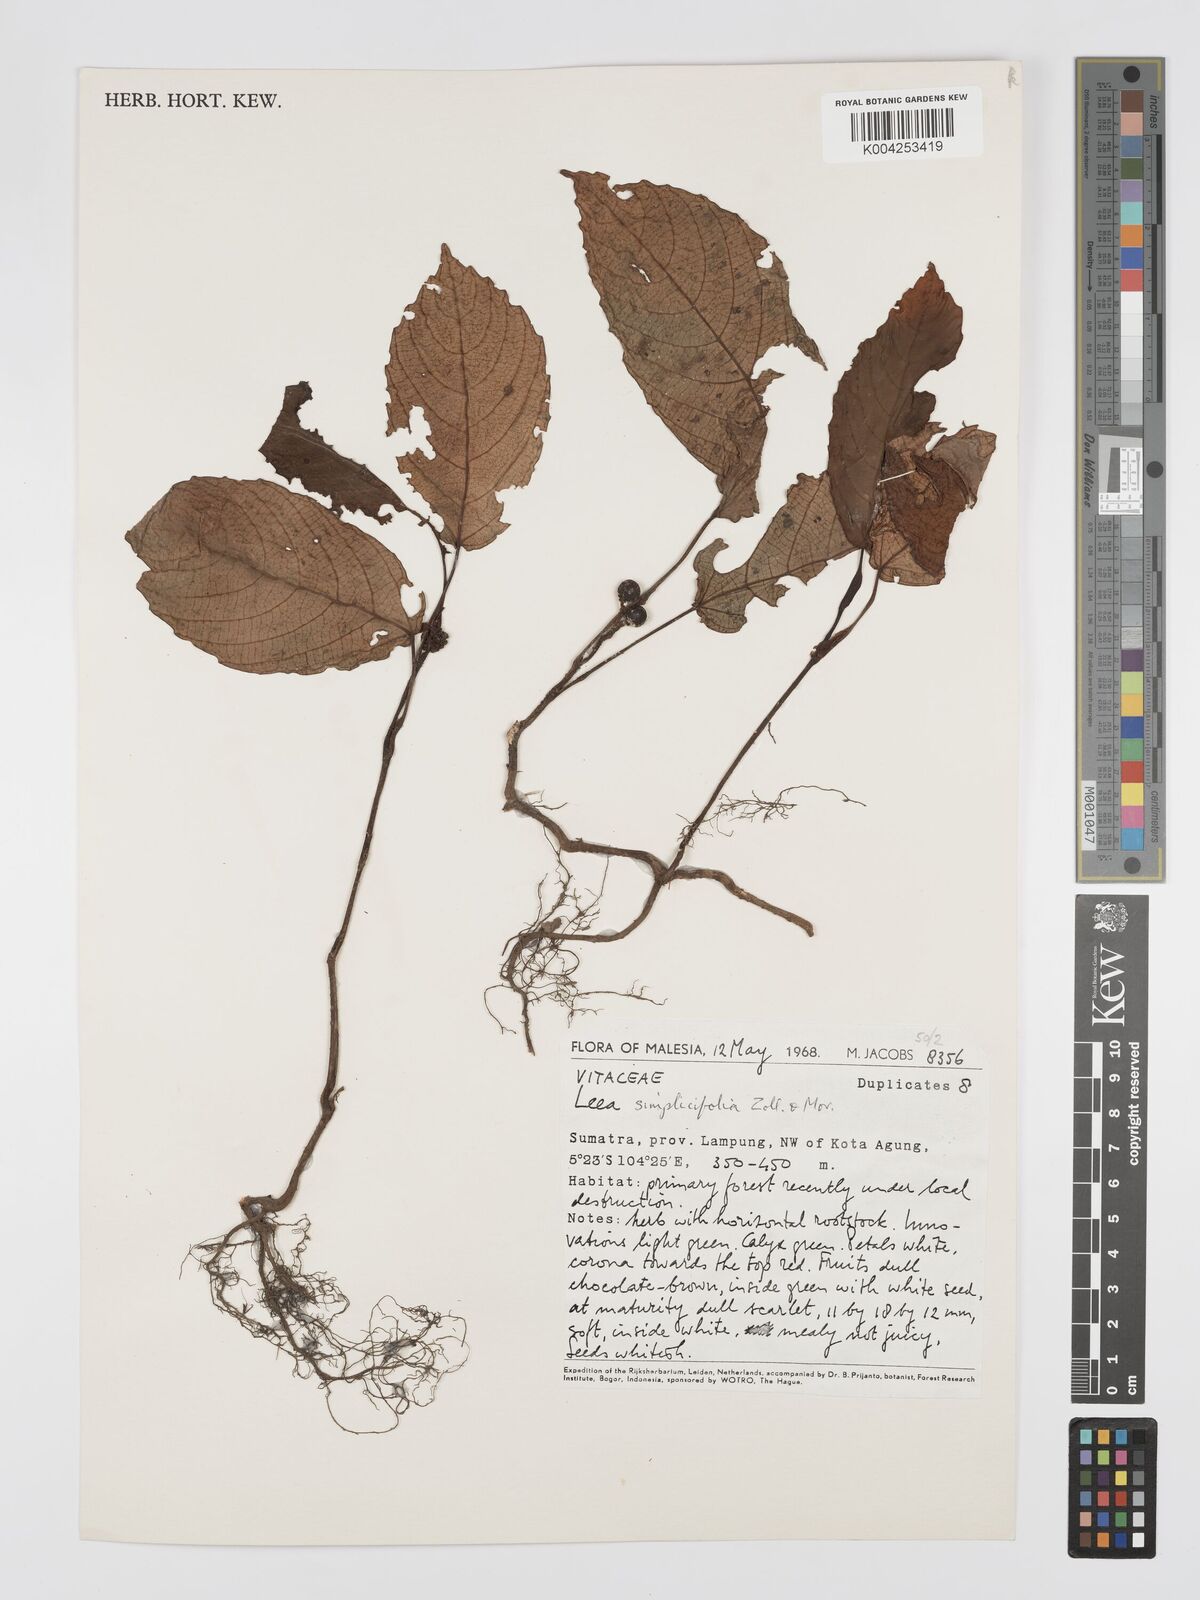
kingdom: Plantae
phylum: Tracheophyta
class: Magnoliopsida
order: Vitales
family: Vitaceae
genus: Leea
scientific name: Leea
